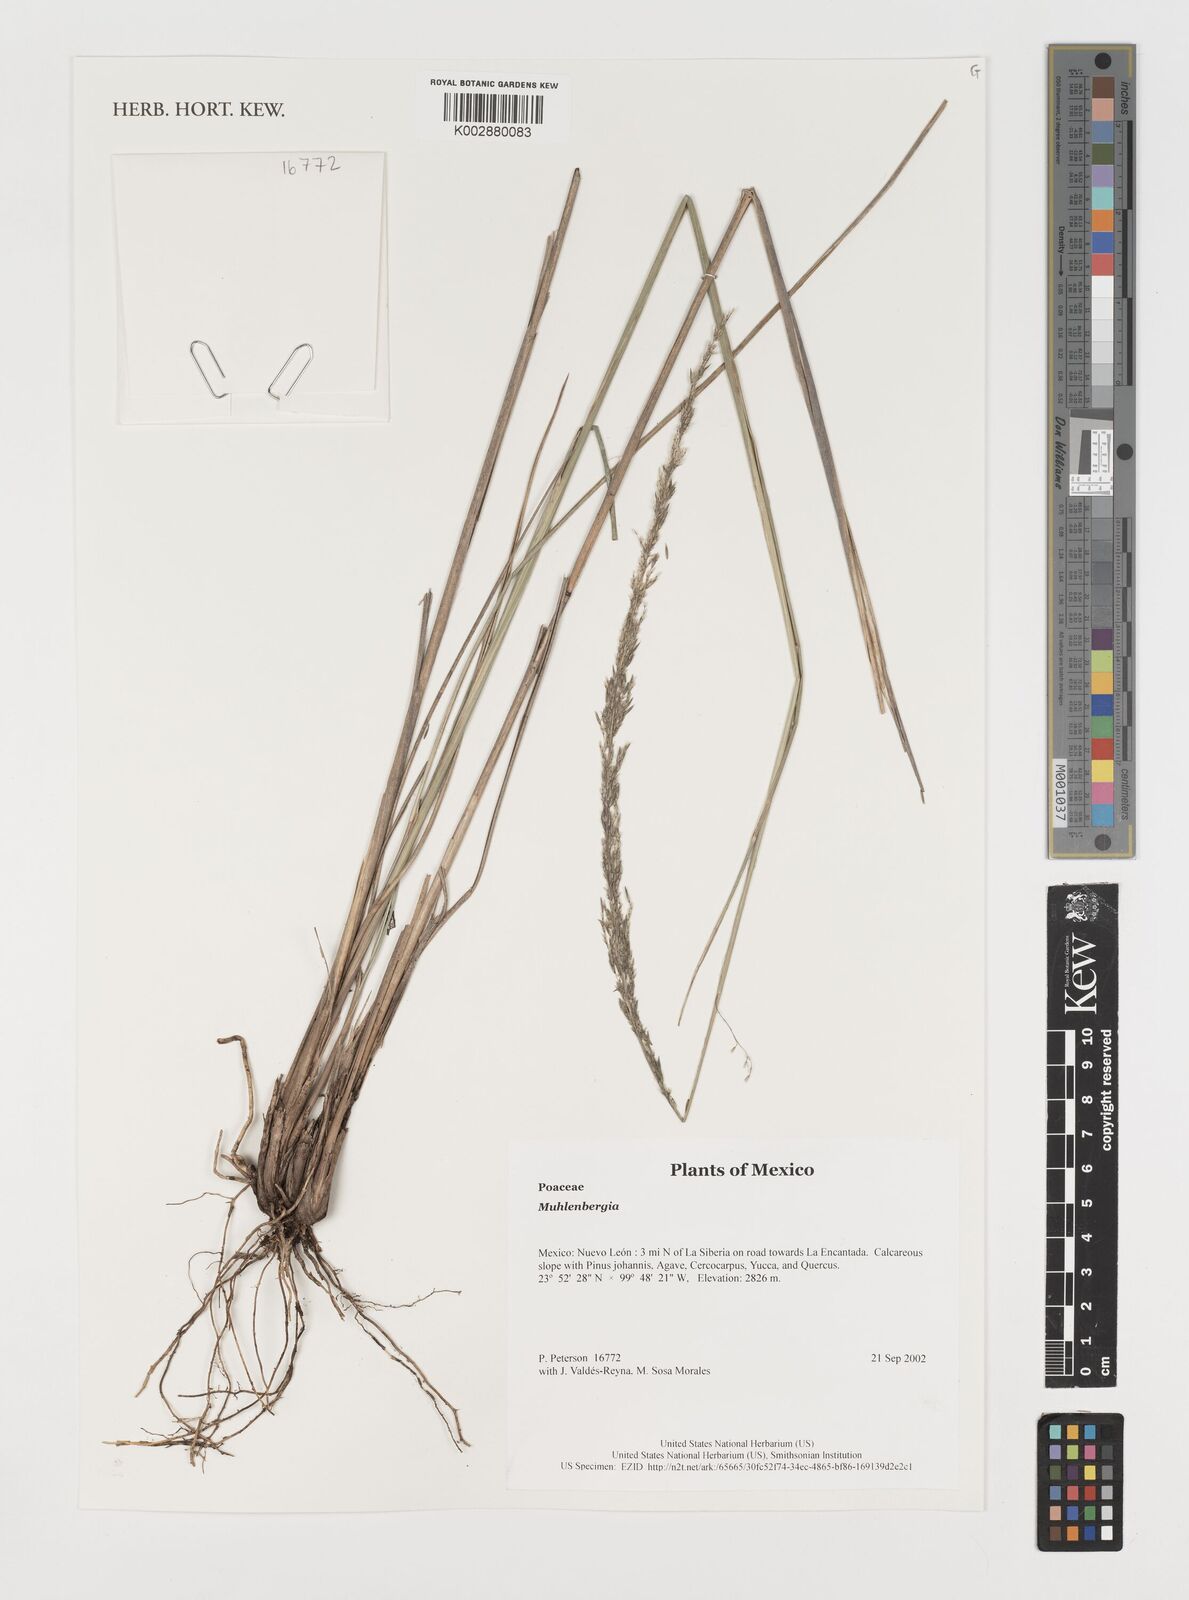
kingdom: Plantae
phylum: Tracheophyta
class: Liliopsida
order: Poales
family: Poaceae
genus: Muhlenbergia
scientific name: Muhlenbergia
